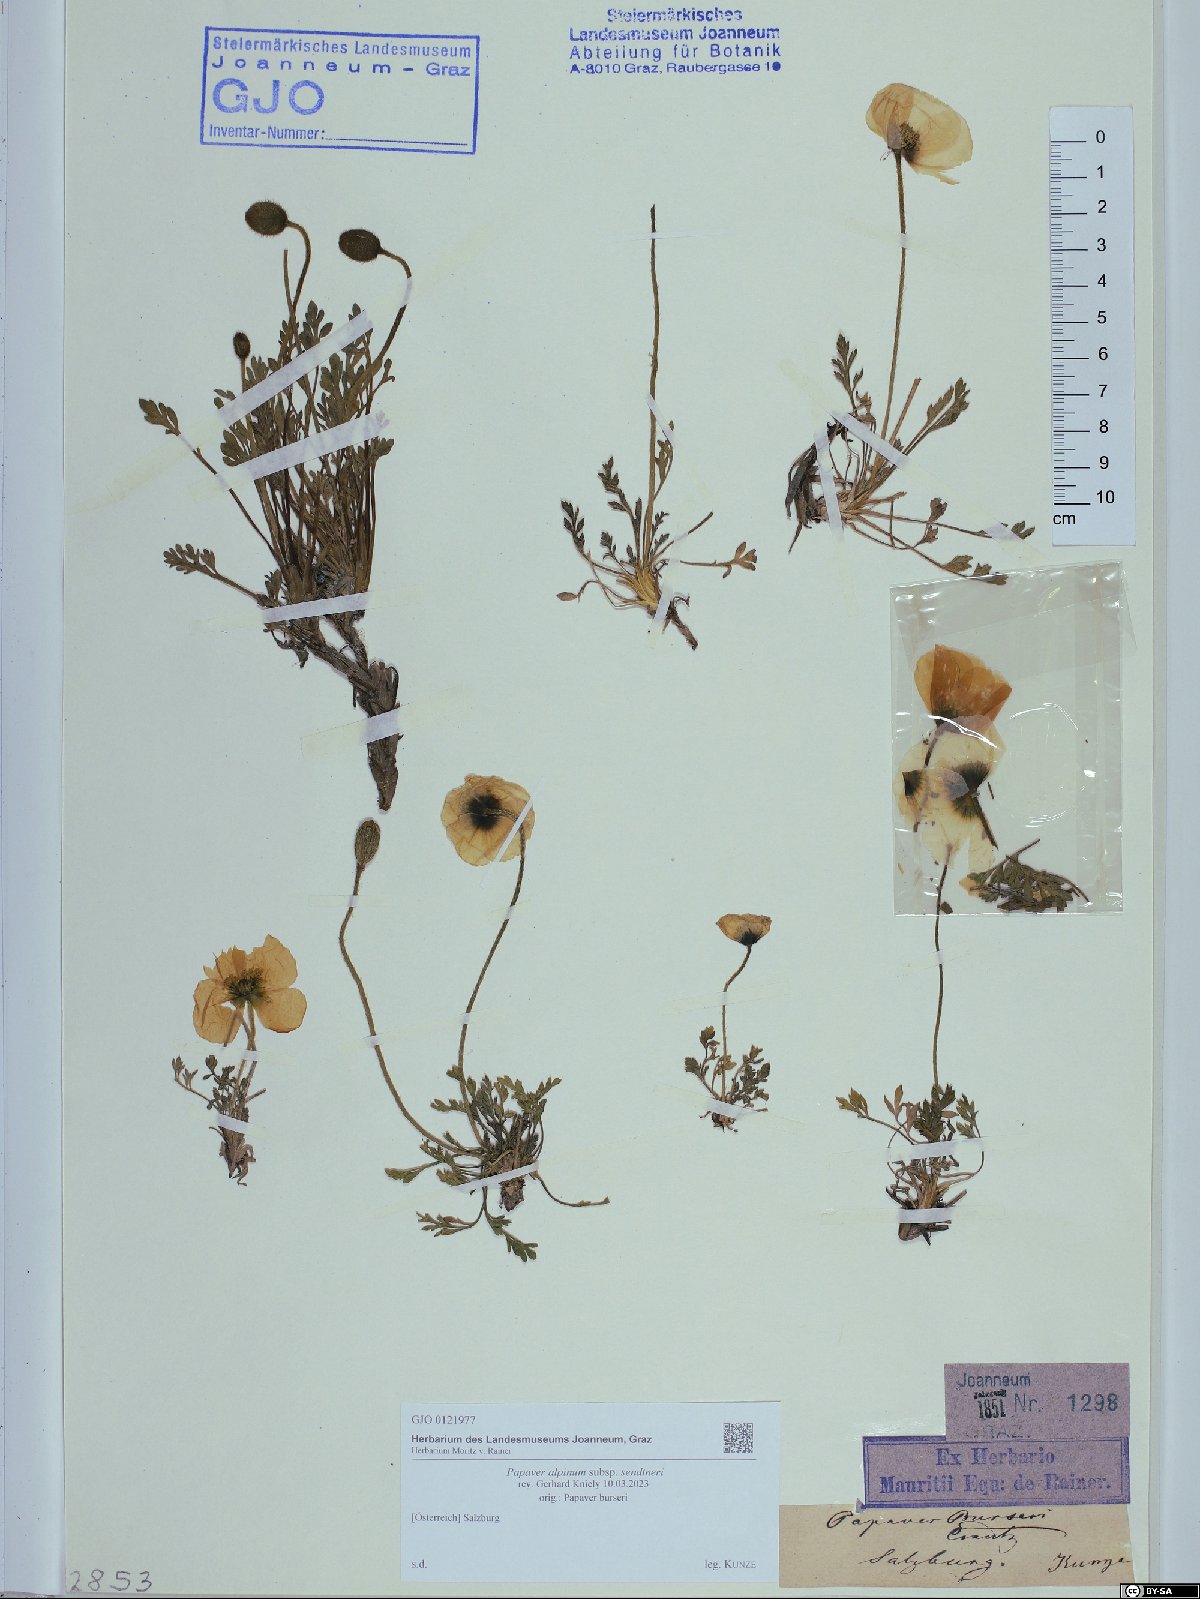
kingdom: Plantae
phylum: Tracheophyta
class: Magnoliopsida
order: Ranunculales
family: Papaveraceae
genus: Papaver
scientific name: Papaver alpinum
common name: Austrian poppy
